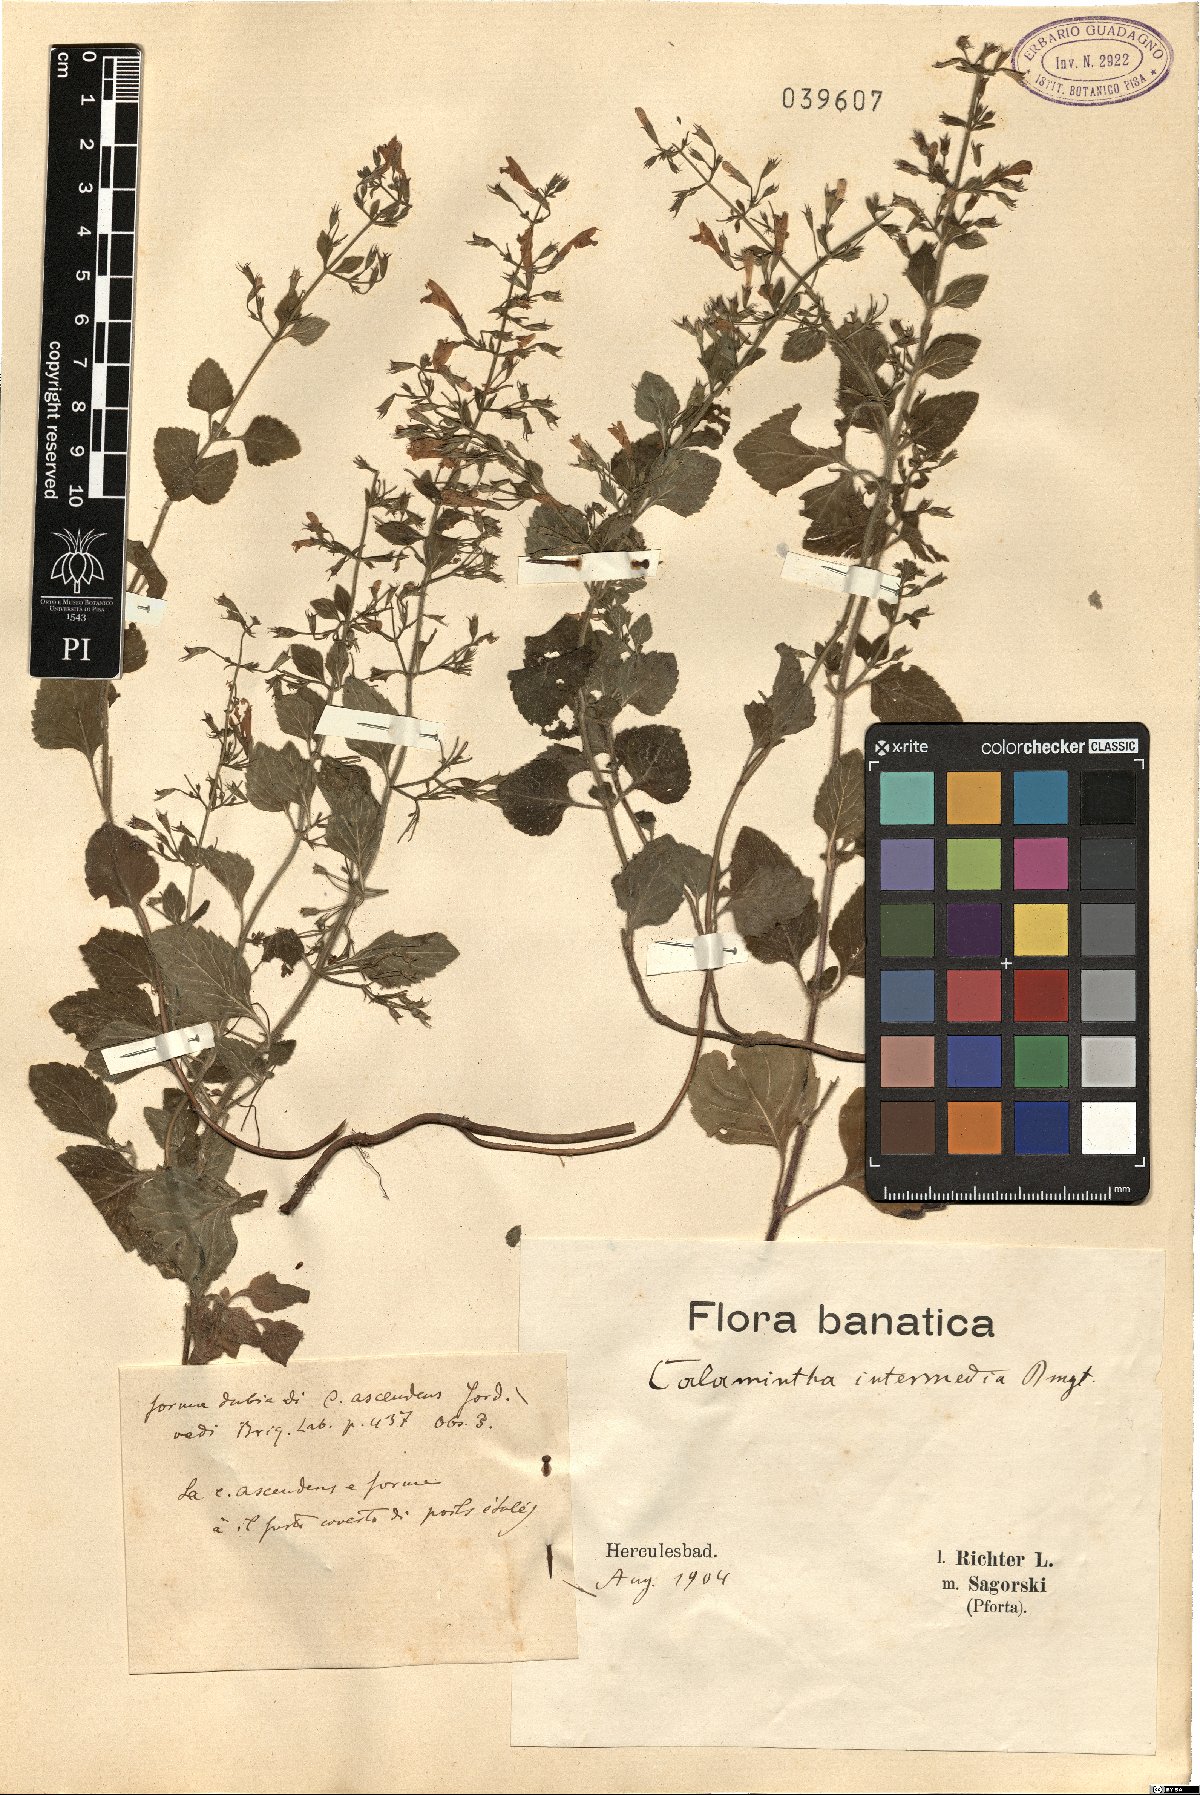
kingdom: Plantae
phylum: Tracheophyta
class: Magnoliopsida
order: Lamiales
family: Lamiaceae
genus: Clinopodium
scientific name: Clinopodium Calamintha intermedia
